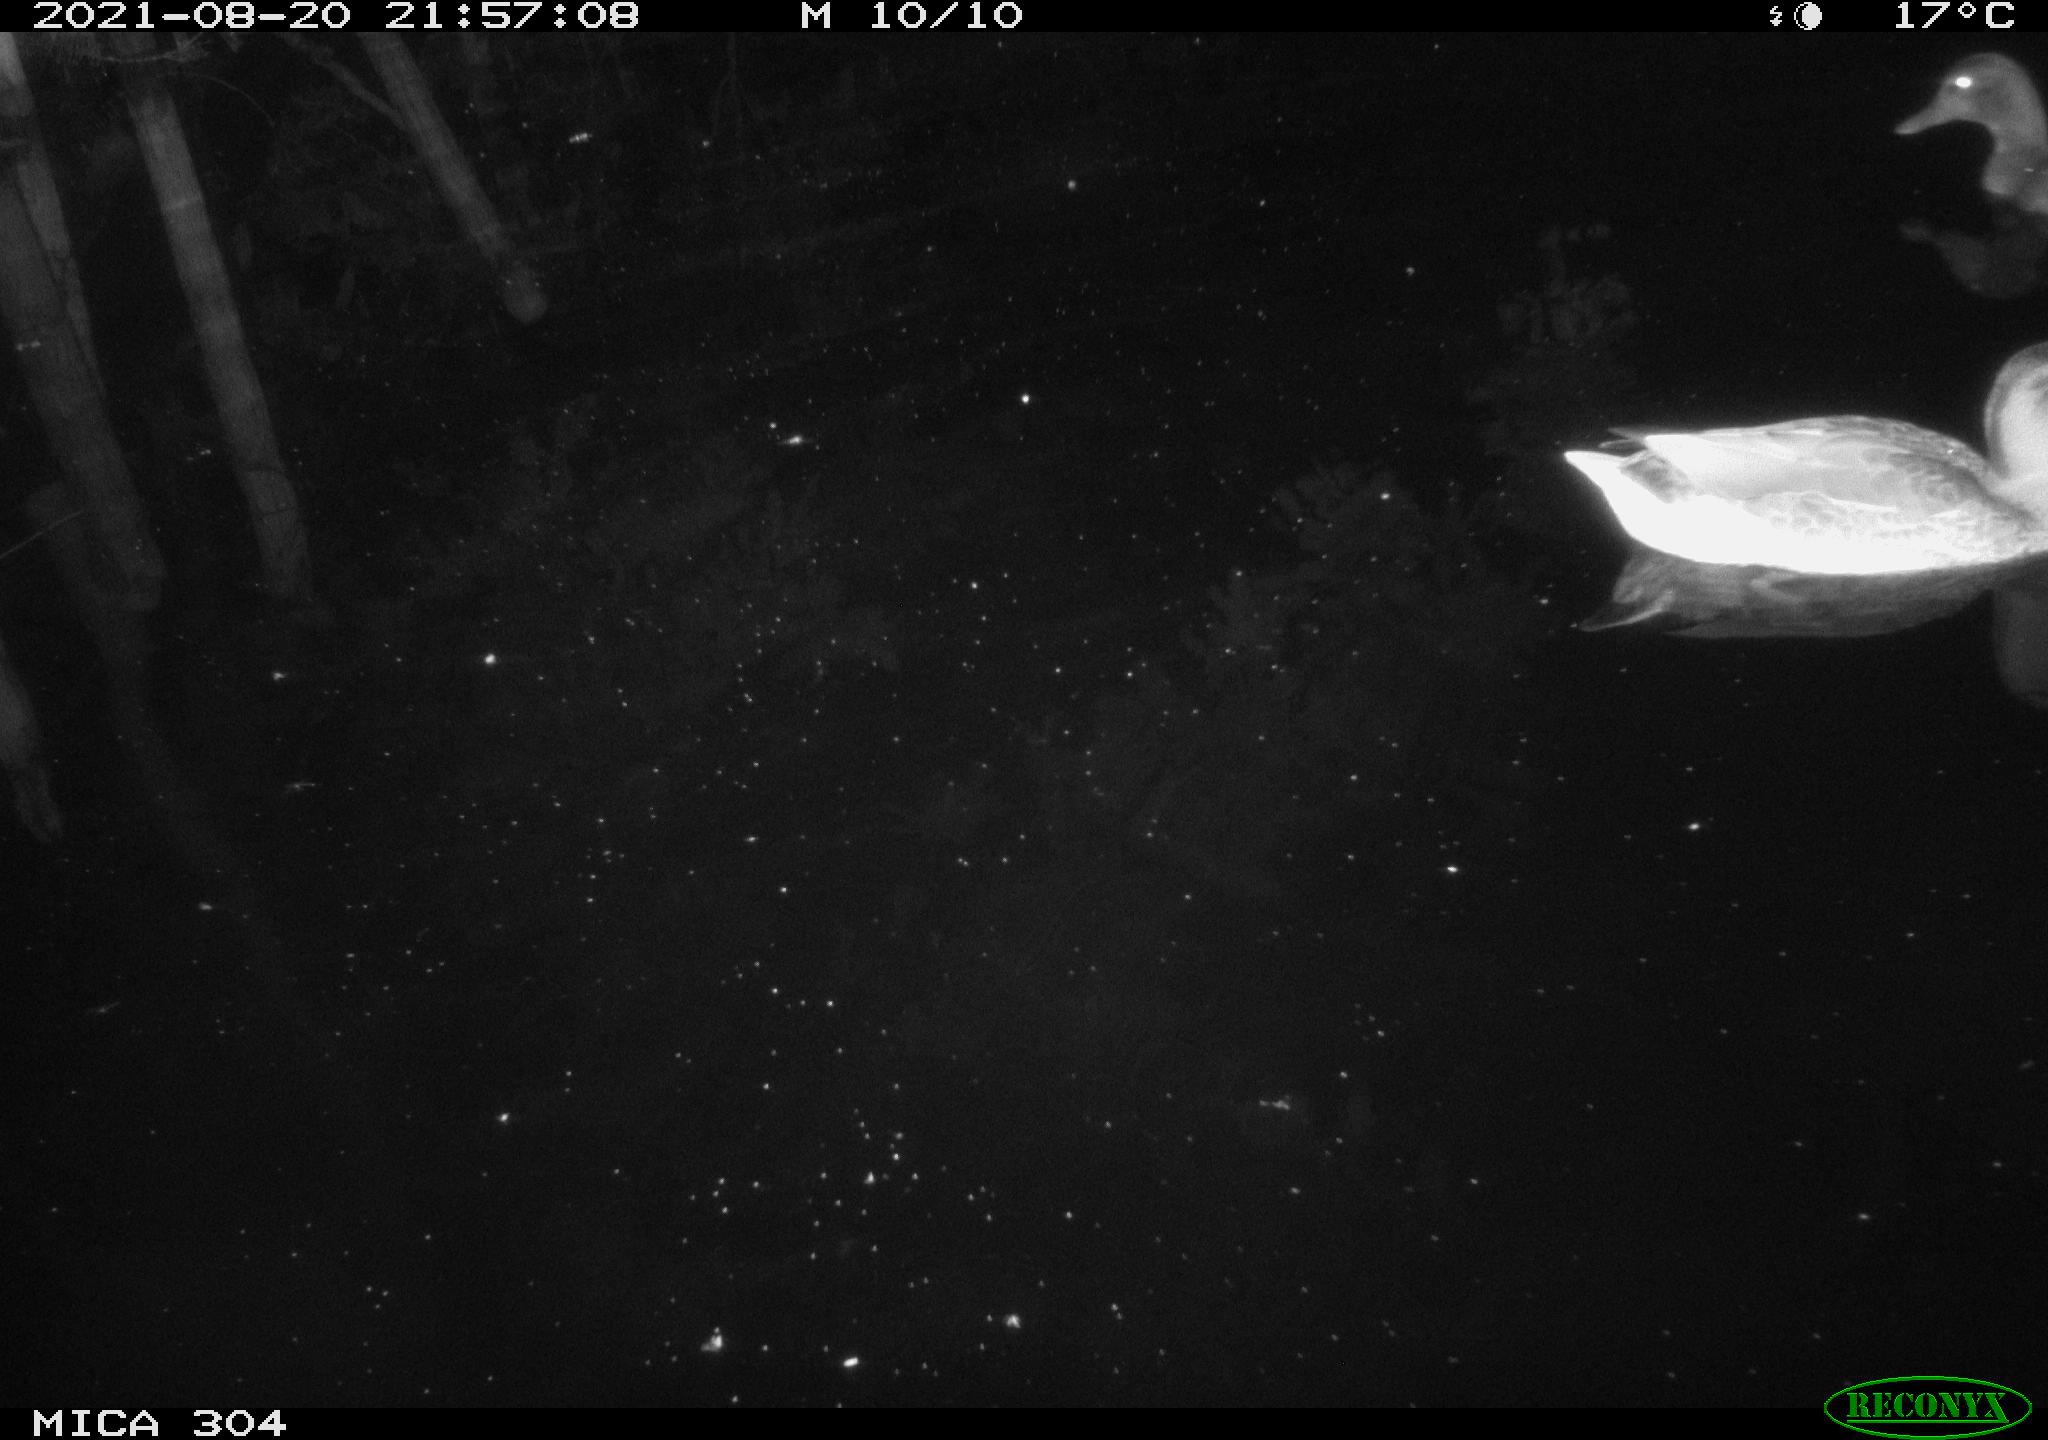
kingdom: Animalia
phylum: Chordata
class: Aves
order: Anseriformes
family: Anatidae
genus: Mareca
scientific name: Mareca strepera
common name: Gadwall
